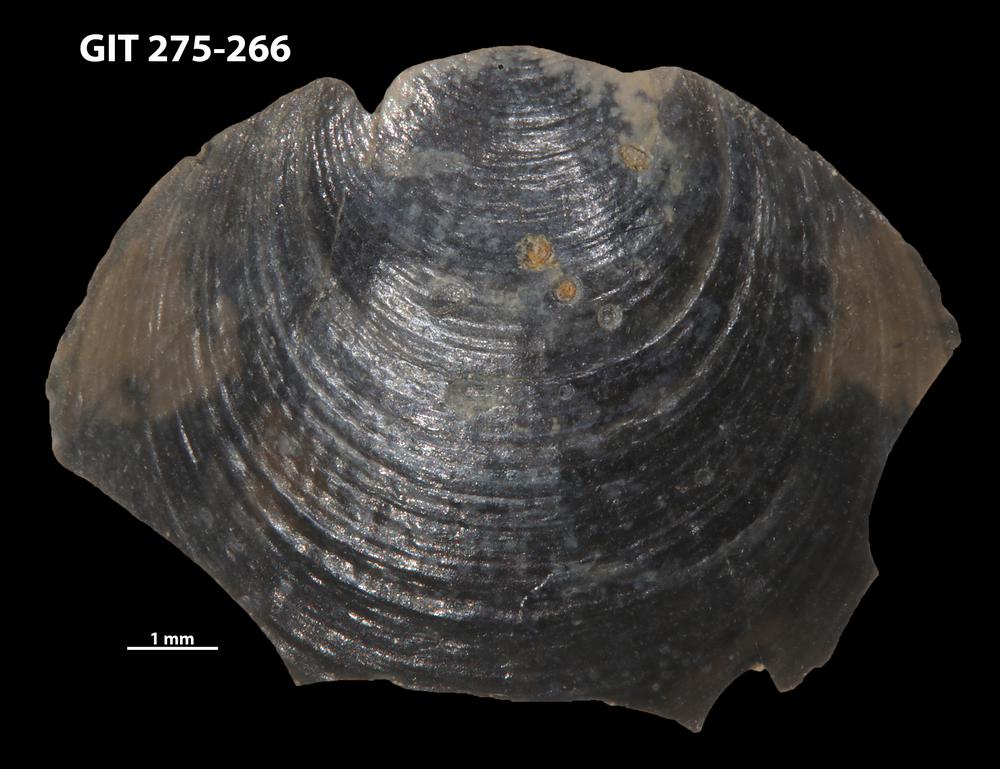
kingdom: Animalia
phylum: Porifera
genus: Ungula
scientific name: Ungula
